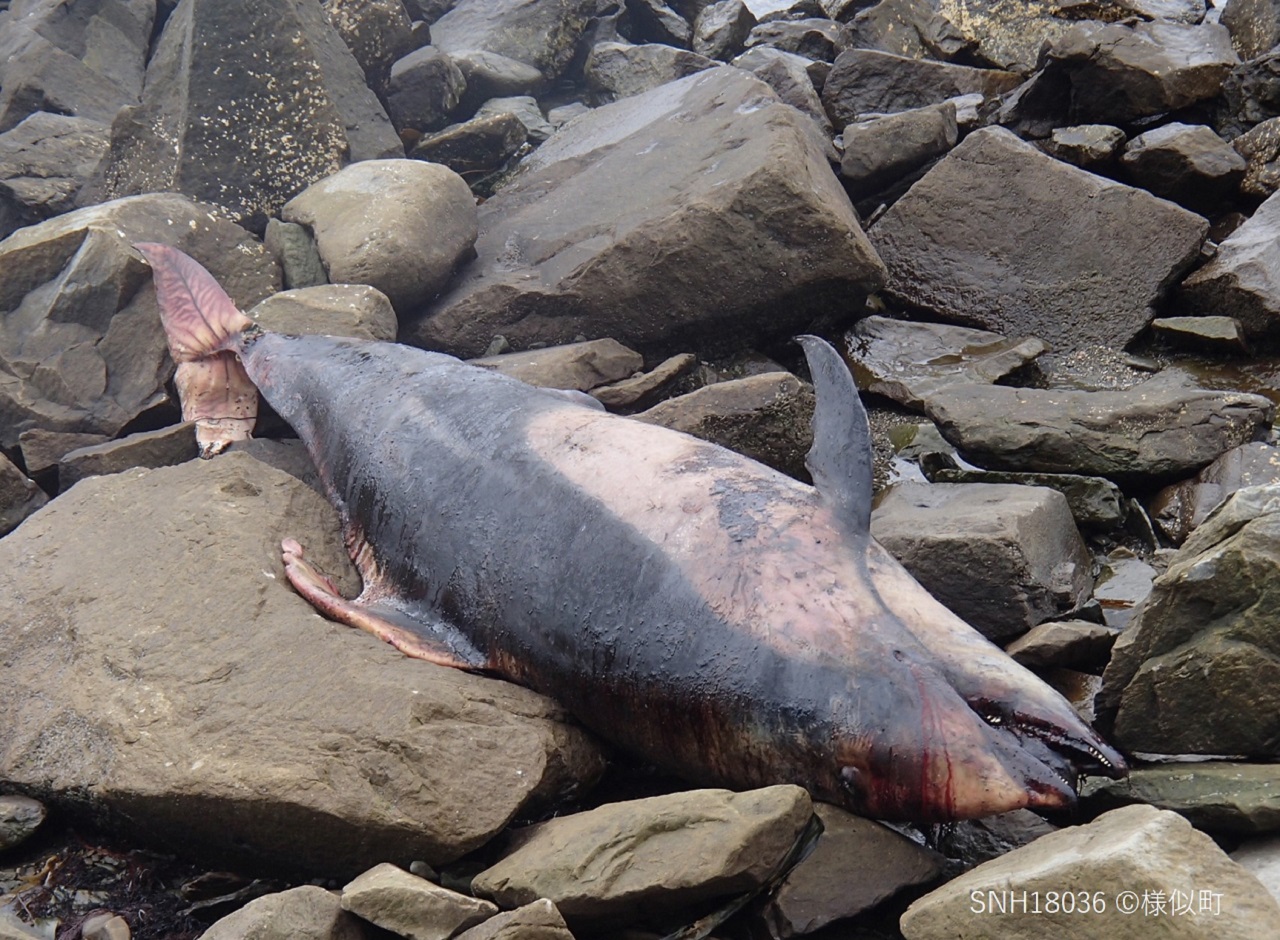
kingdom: Animalia
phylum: Chordata
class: Mammalia
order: Cetacea
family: Delphinidae
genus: Lagenorhynchus
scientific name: Lagenorhynchus obliquidens
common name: Pacific white-sided dolphin
